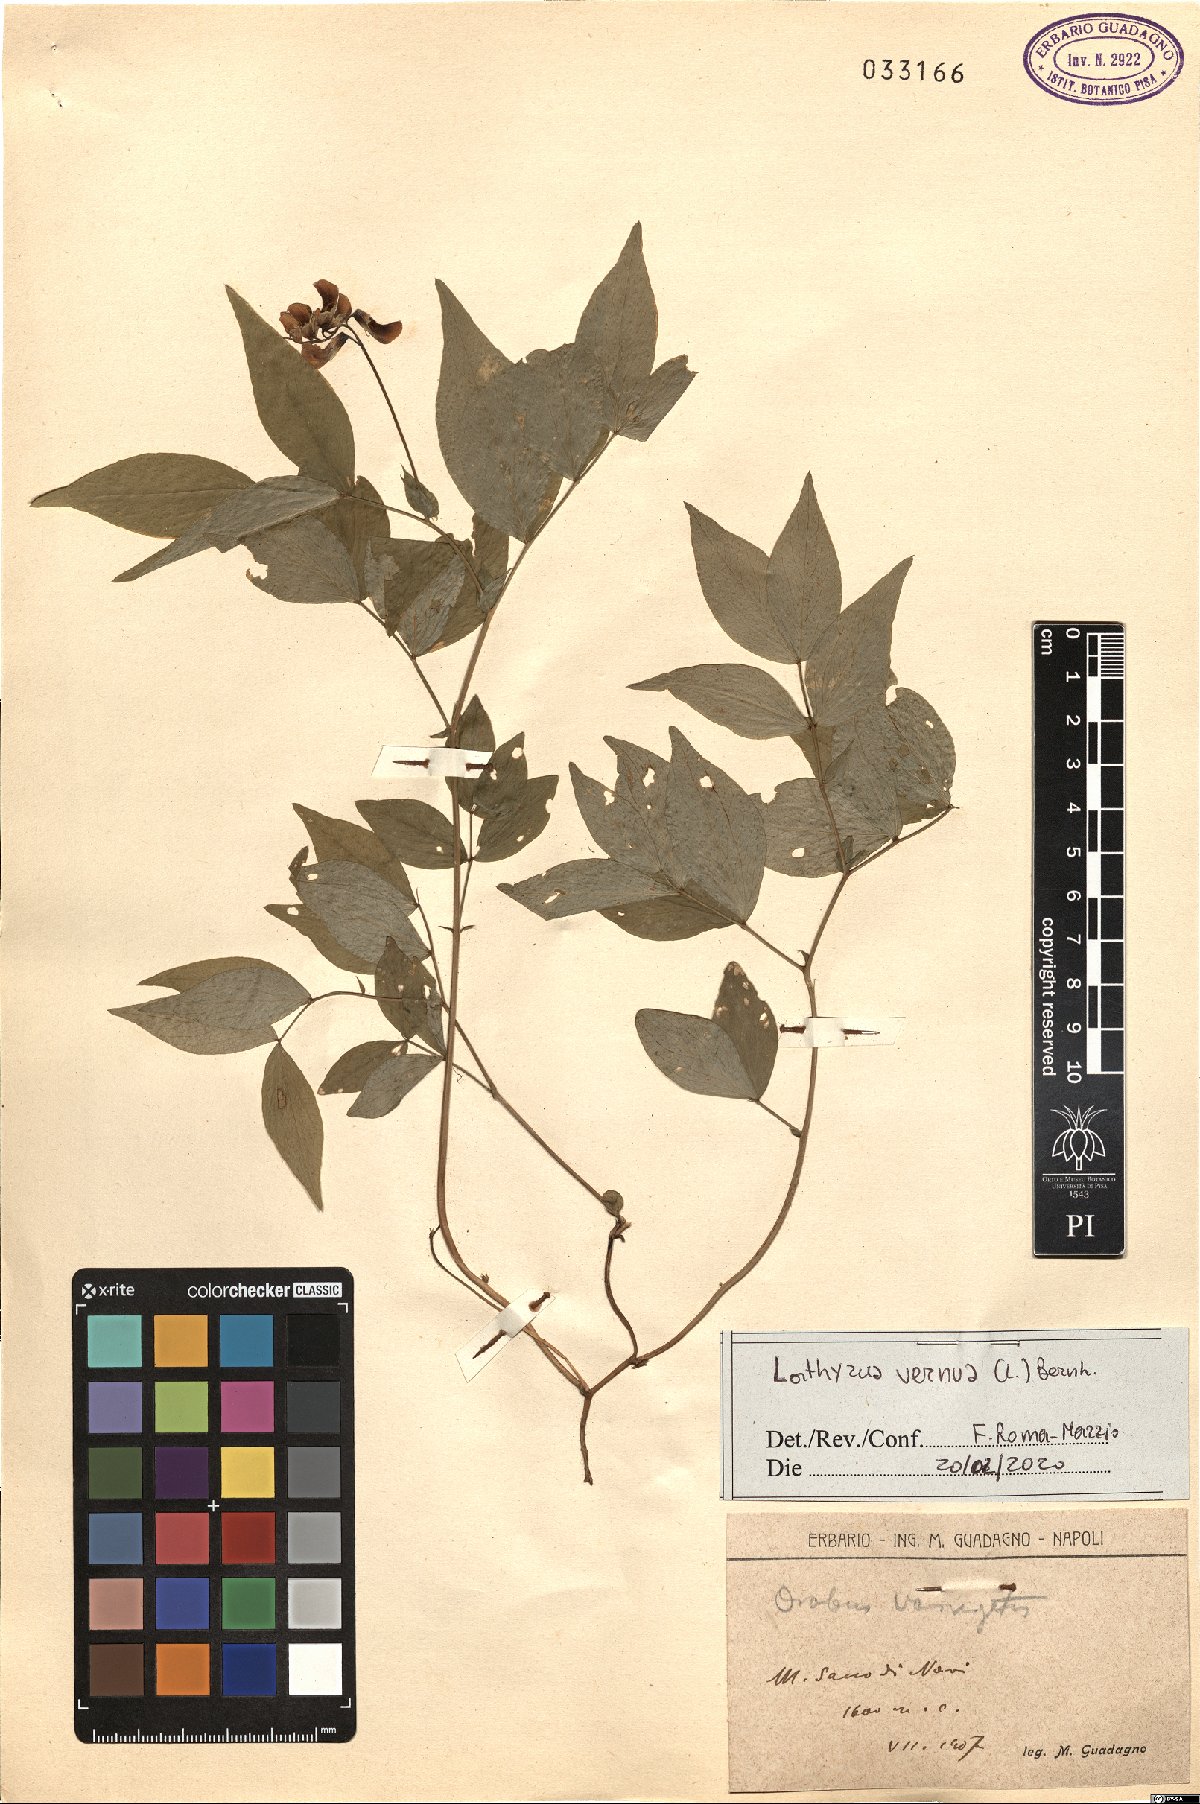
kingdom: Plantae
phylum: Tracheophyta
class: Magnoliopsida
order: Fabales
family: Fabaceae
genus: Lathyrus
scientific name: Lathyrus vernus
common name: Spring pea
